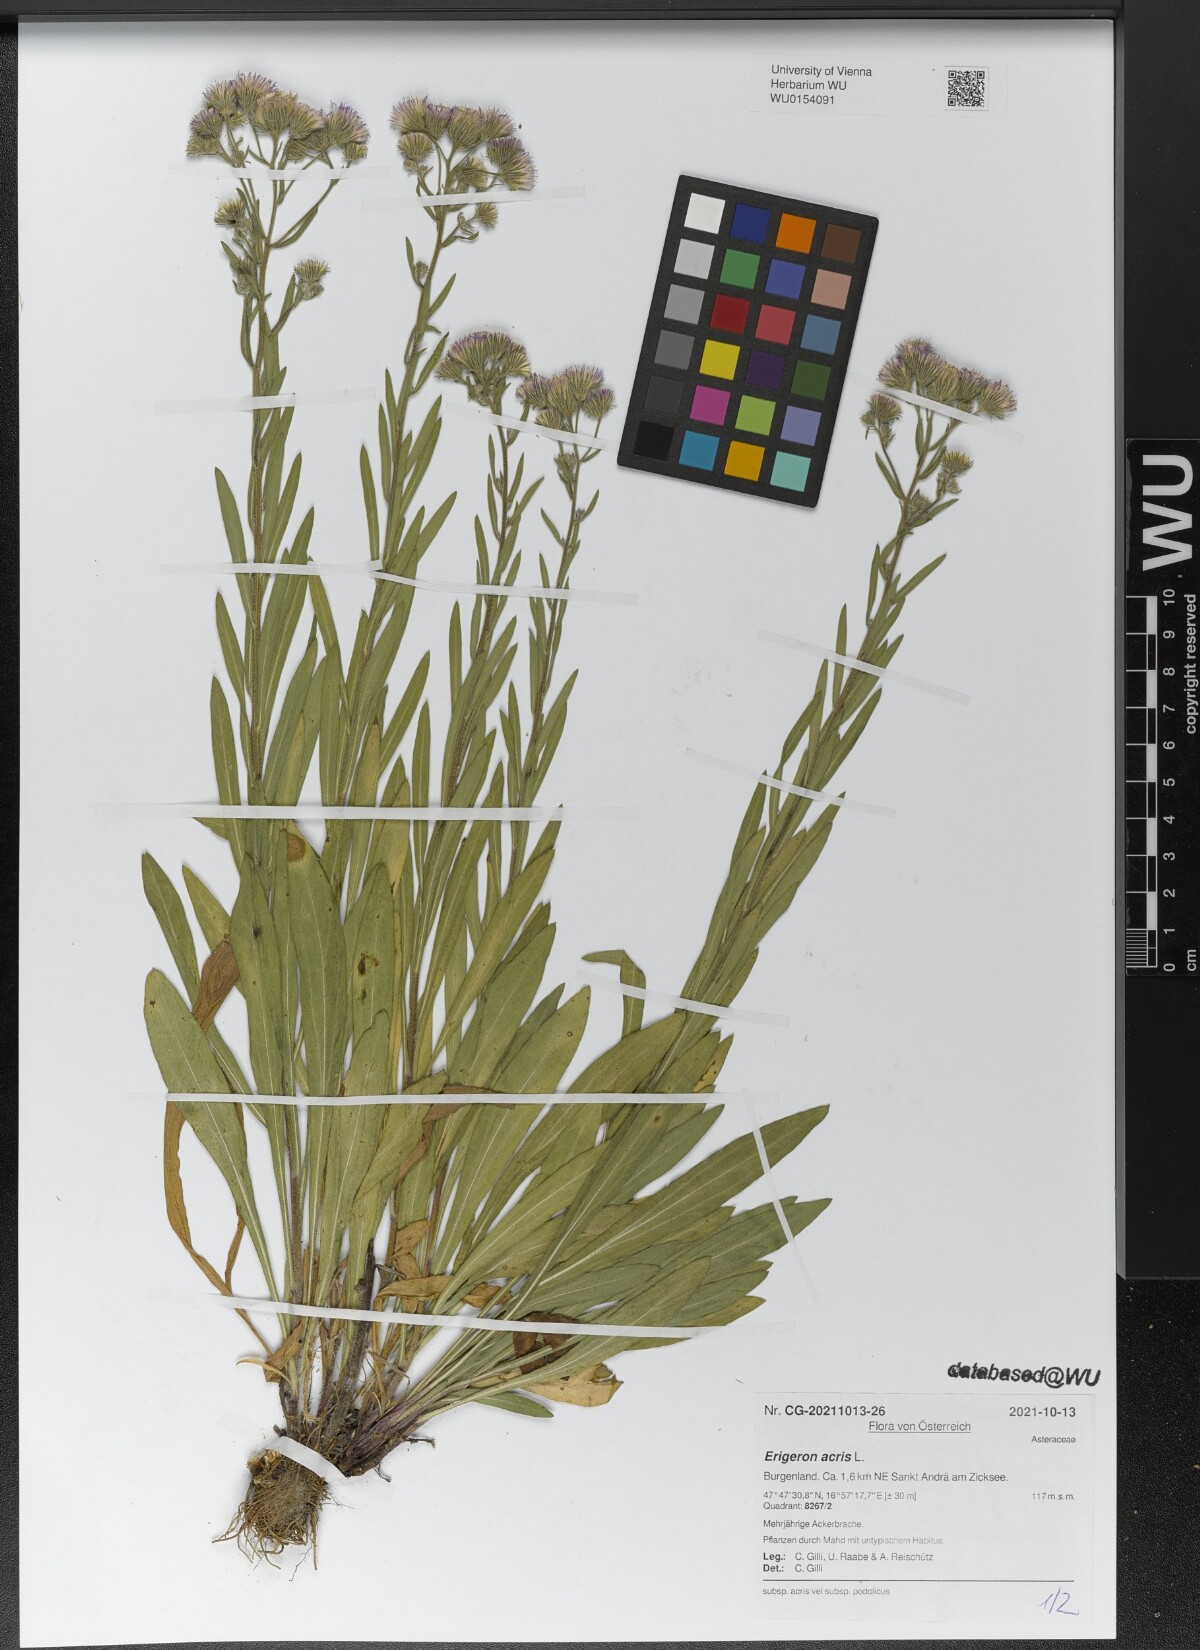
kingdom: Plantae
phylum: Tracheophyta
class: Magnoliopsida
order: Asterales
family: Asteraceae
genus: Erigeron
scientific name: Erigeron acris
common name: Blue fleabane
